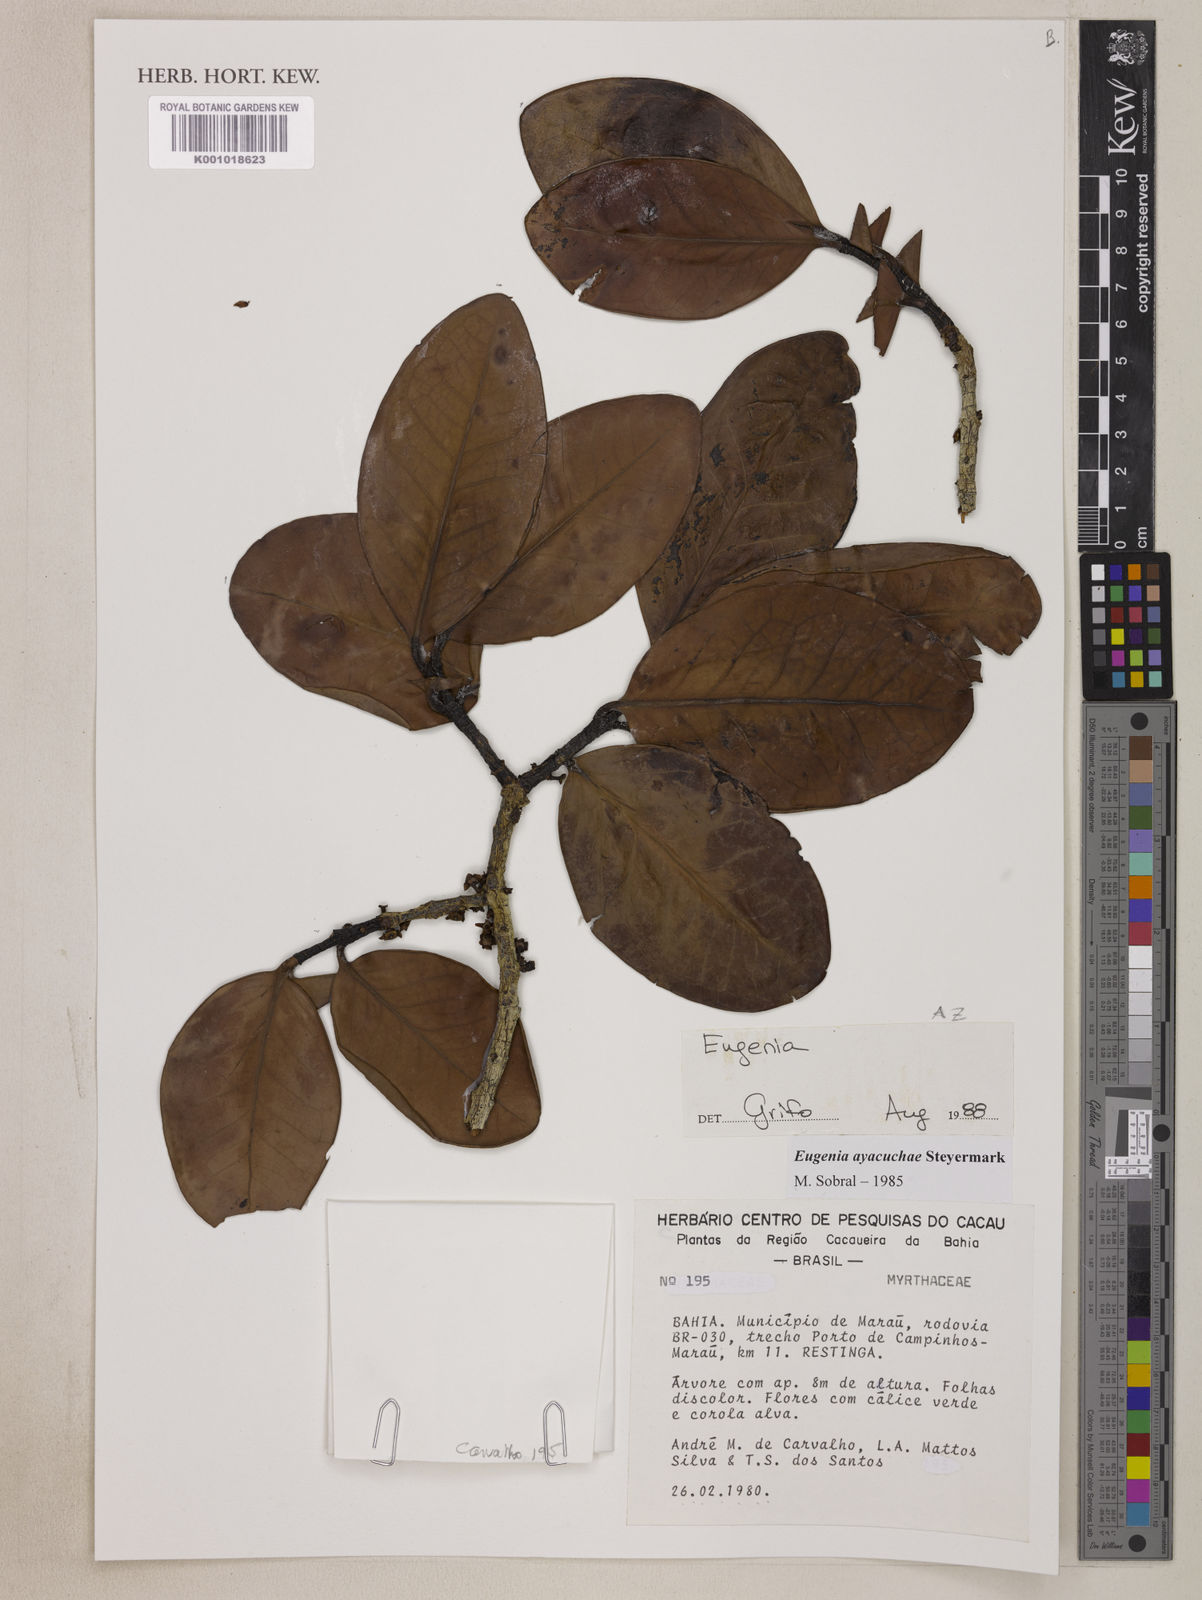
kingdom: Plantae
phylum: Tracheophyta
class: Magnoliopsida
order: Myrtales
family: Myrtaceae
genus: Eugenia
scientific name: Eugenia ayacuchae
